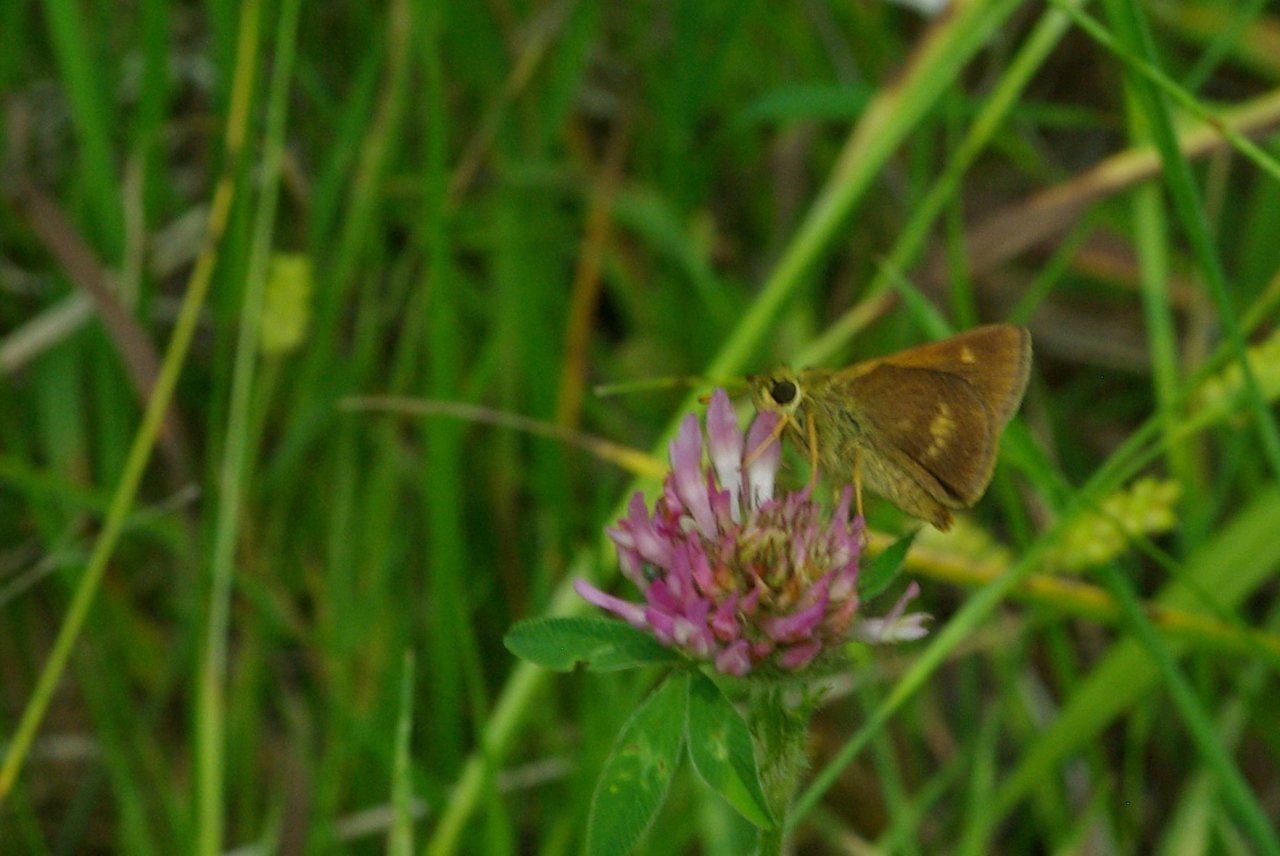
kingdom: Animalia
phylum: Arthropoda
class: Insecta
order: Lepidoptera
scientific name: Lepidoptera
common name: Butterflies
